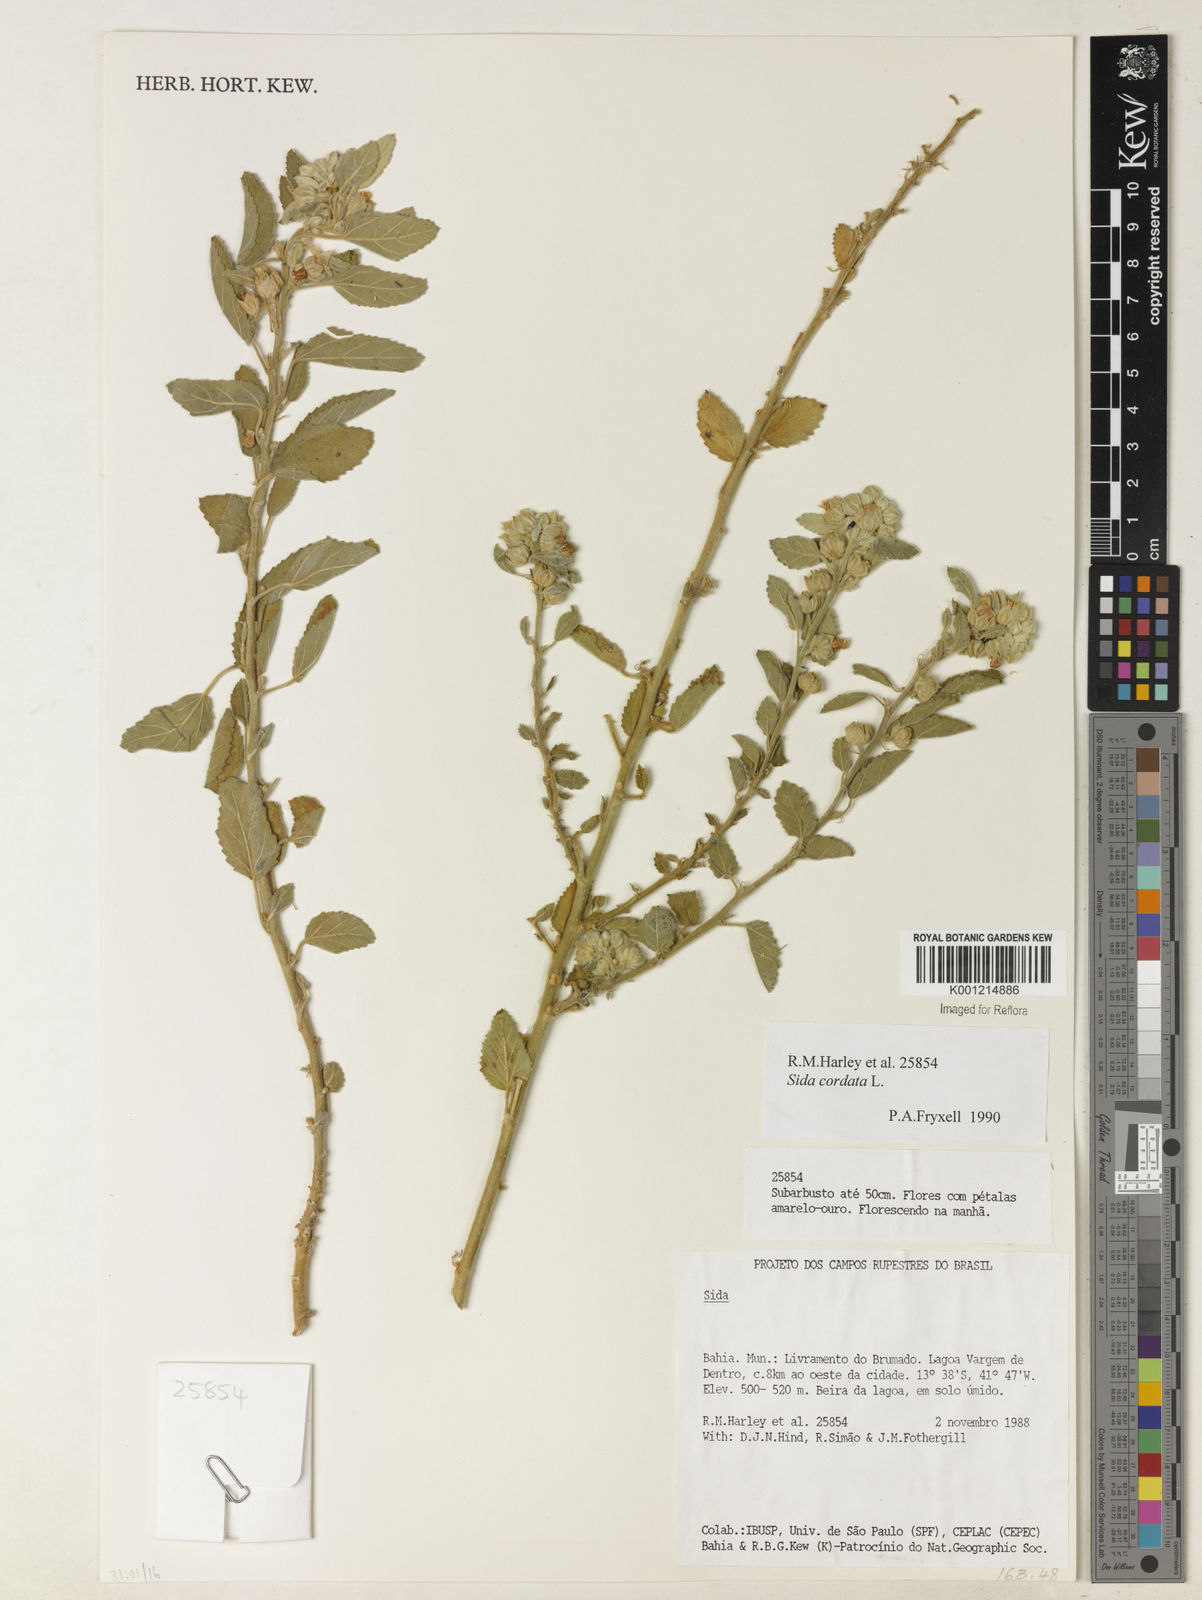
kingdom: Plantae
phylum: Tracheophyta
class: Magnoliopsida
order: Malvales
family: Malvaceae
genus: Sida
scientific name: Sida cordata
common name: Long-stalk sida
